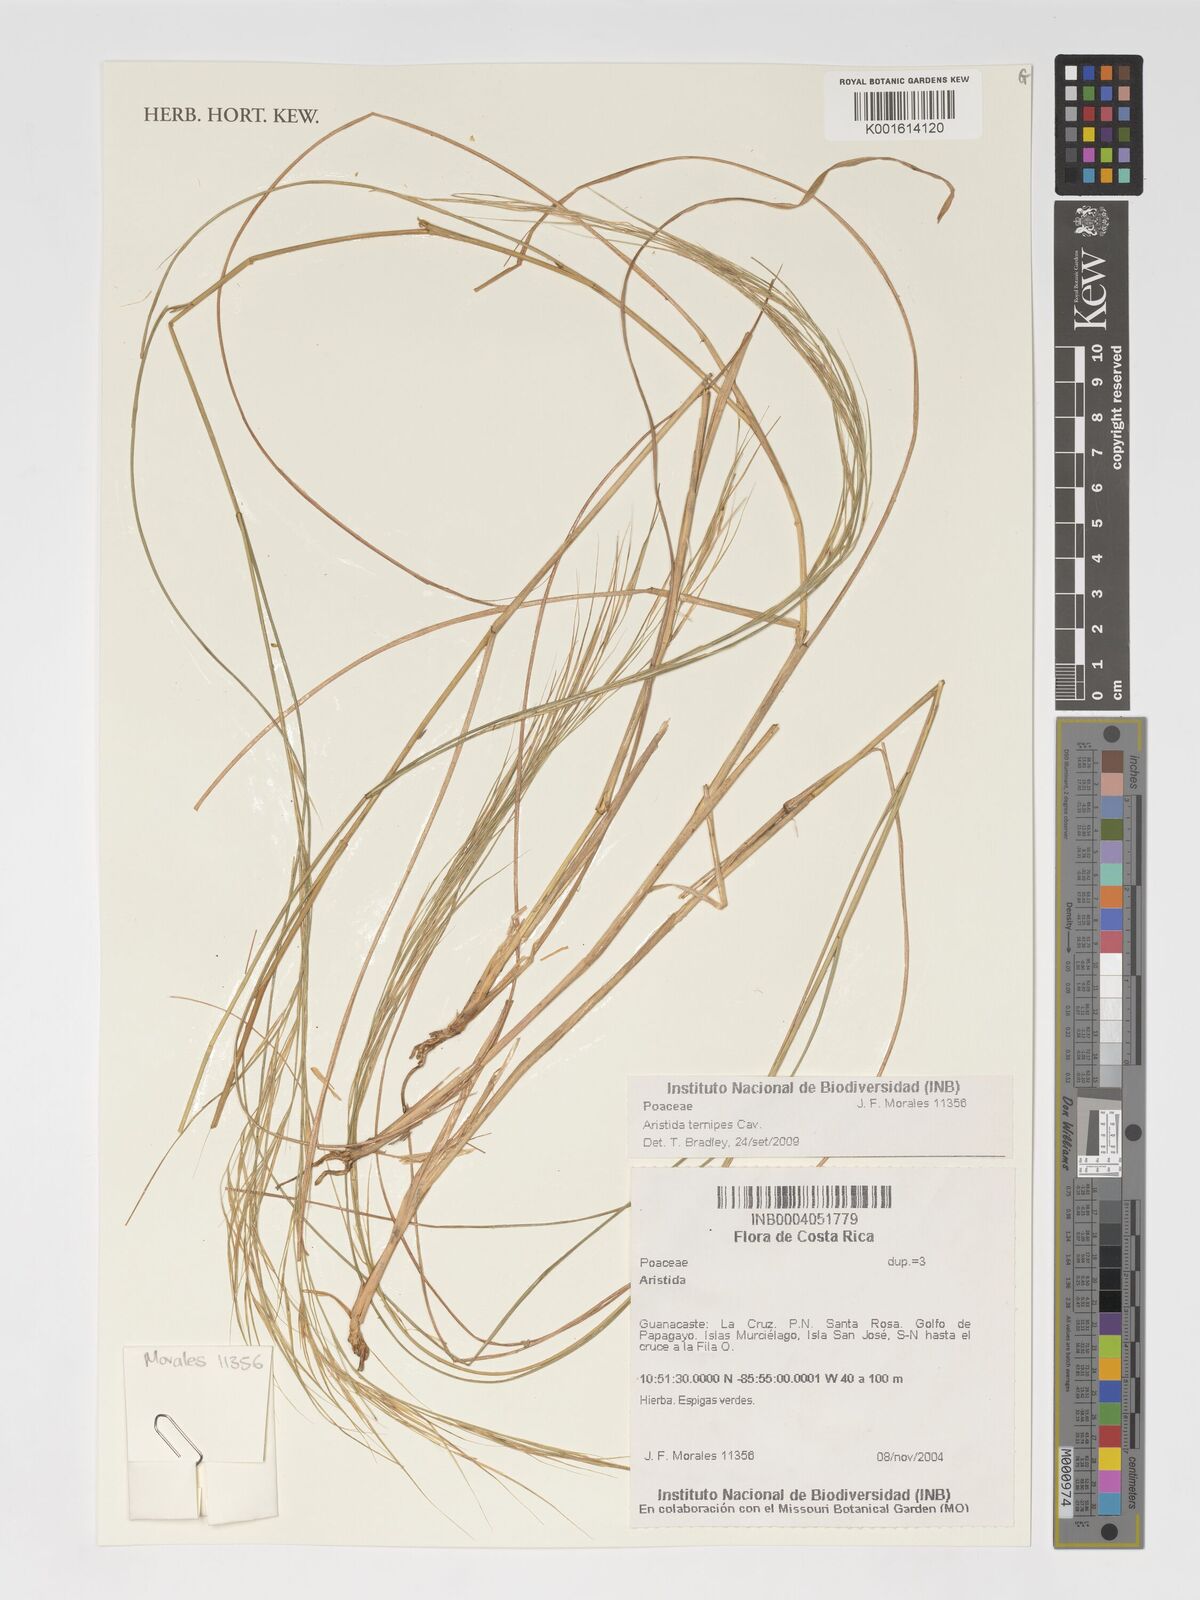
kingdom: Plantae
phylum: Tracheophyta
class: Liliopsida
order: Poales
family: Poaceae
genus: Aristida
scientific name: Aristida ternipes
